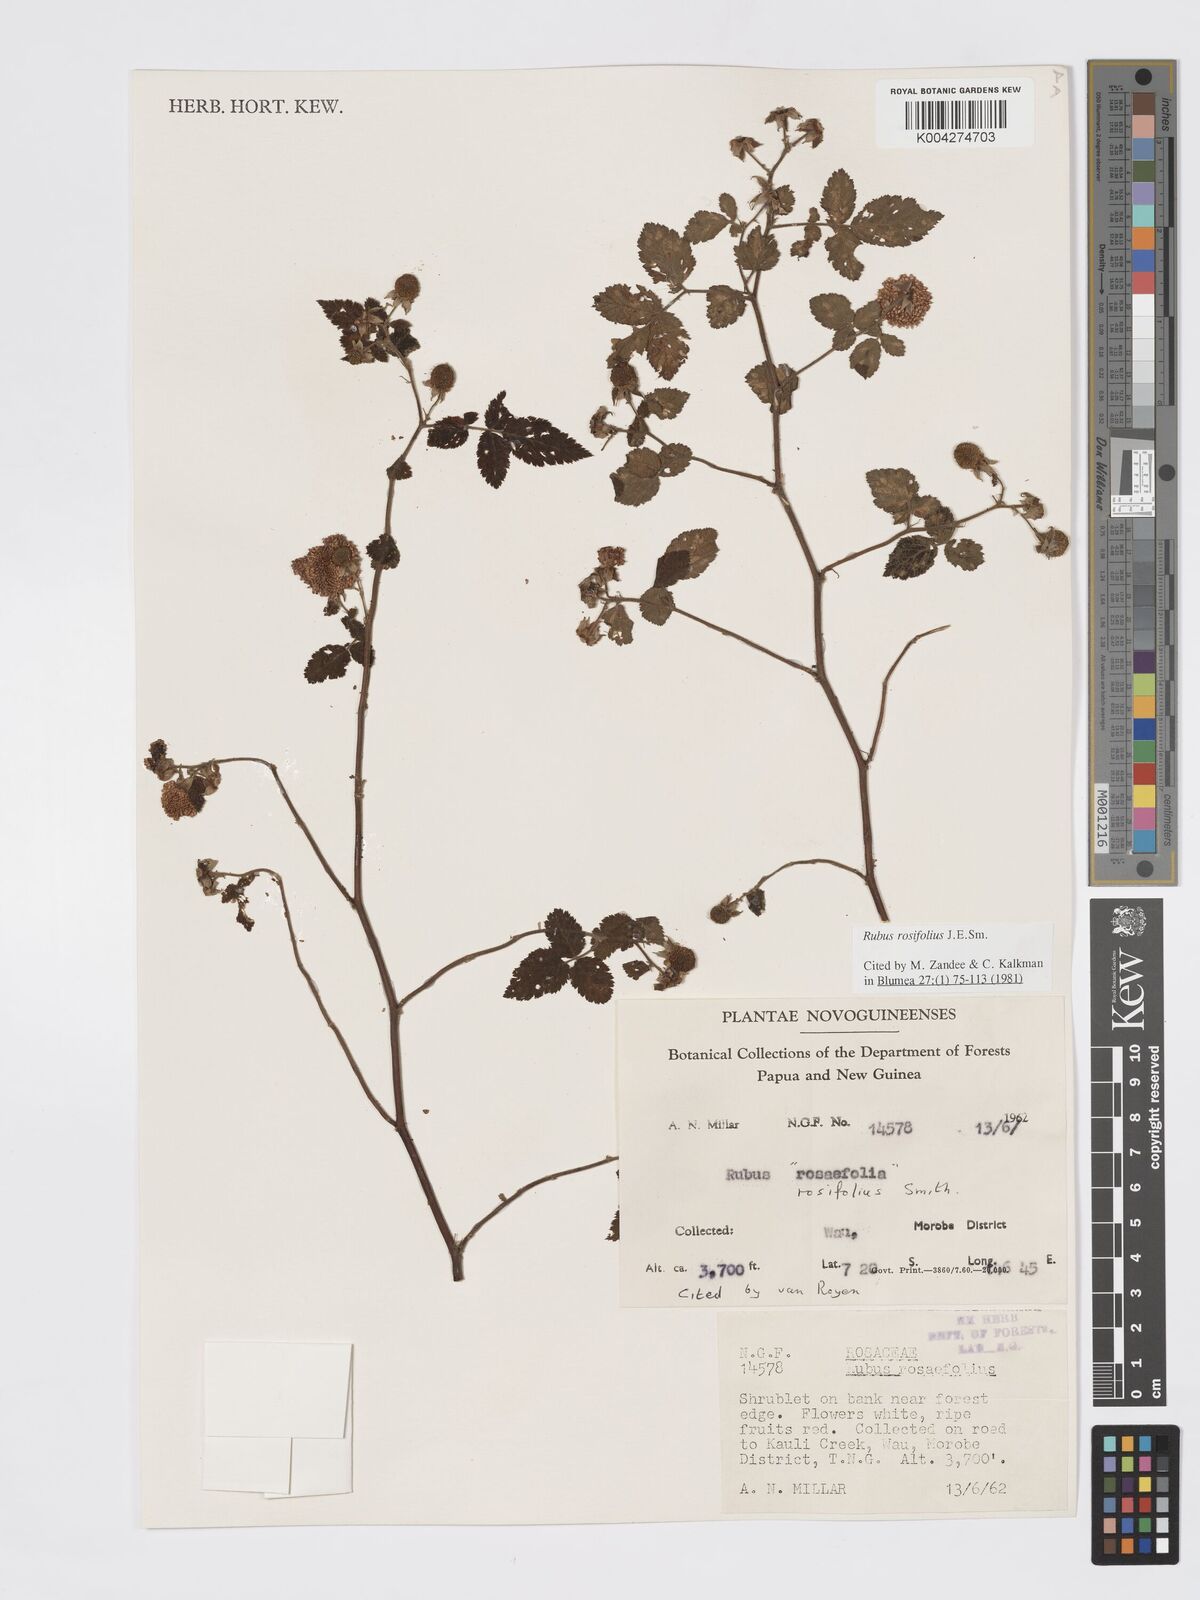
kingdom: Plantae
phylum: Tracheophyta
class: Magnoliopsida
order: Rosales
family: Rosaceae
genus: Rubus
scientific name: Rubus
